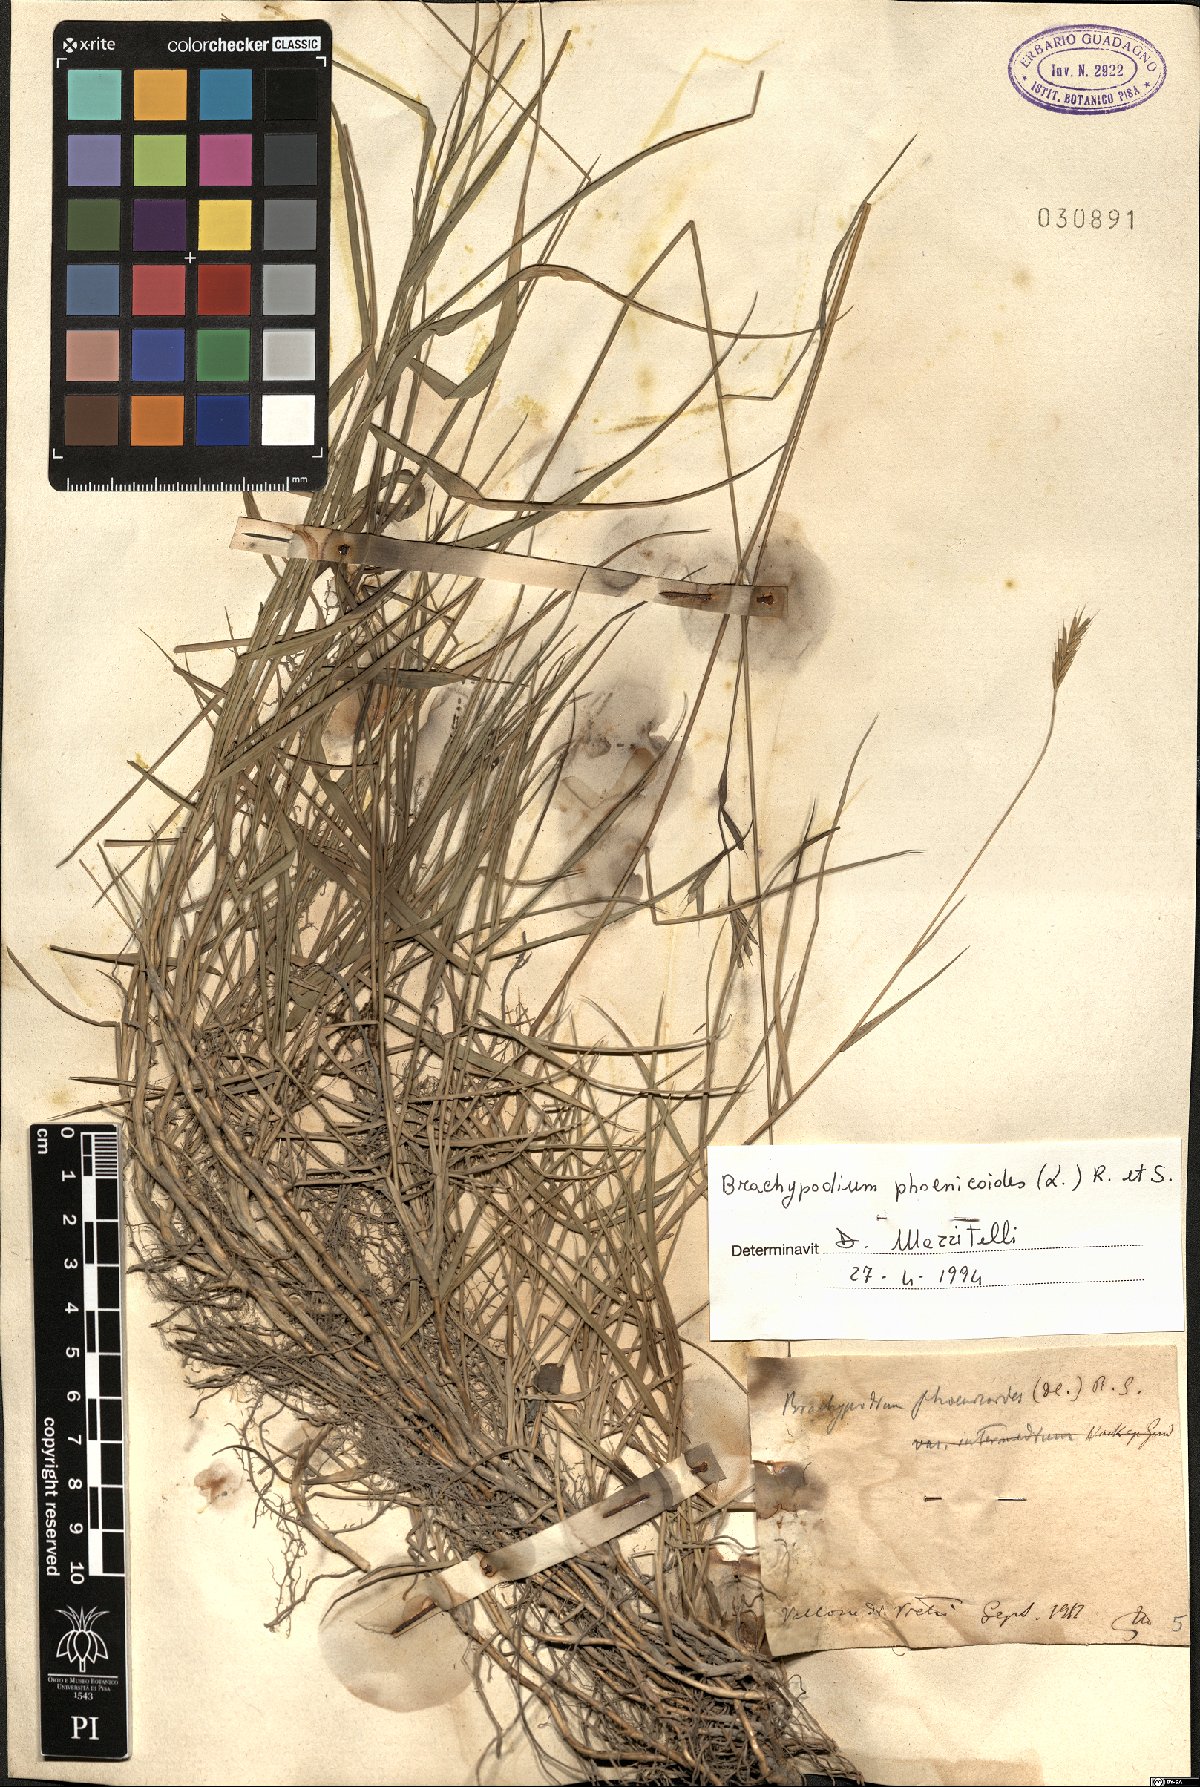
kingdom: Plantae
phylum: Tracheophyta
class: Liliopsida
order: Poales
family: Poaceae
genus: Brachypodium
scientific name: Brachypodium phoenicoides
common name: Thinleaf false brome
